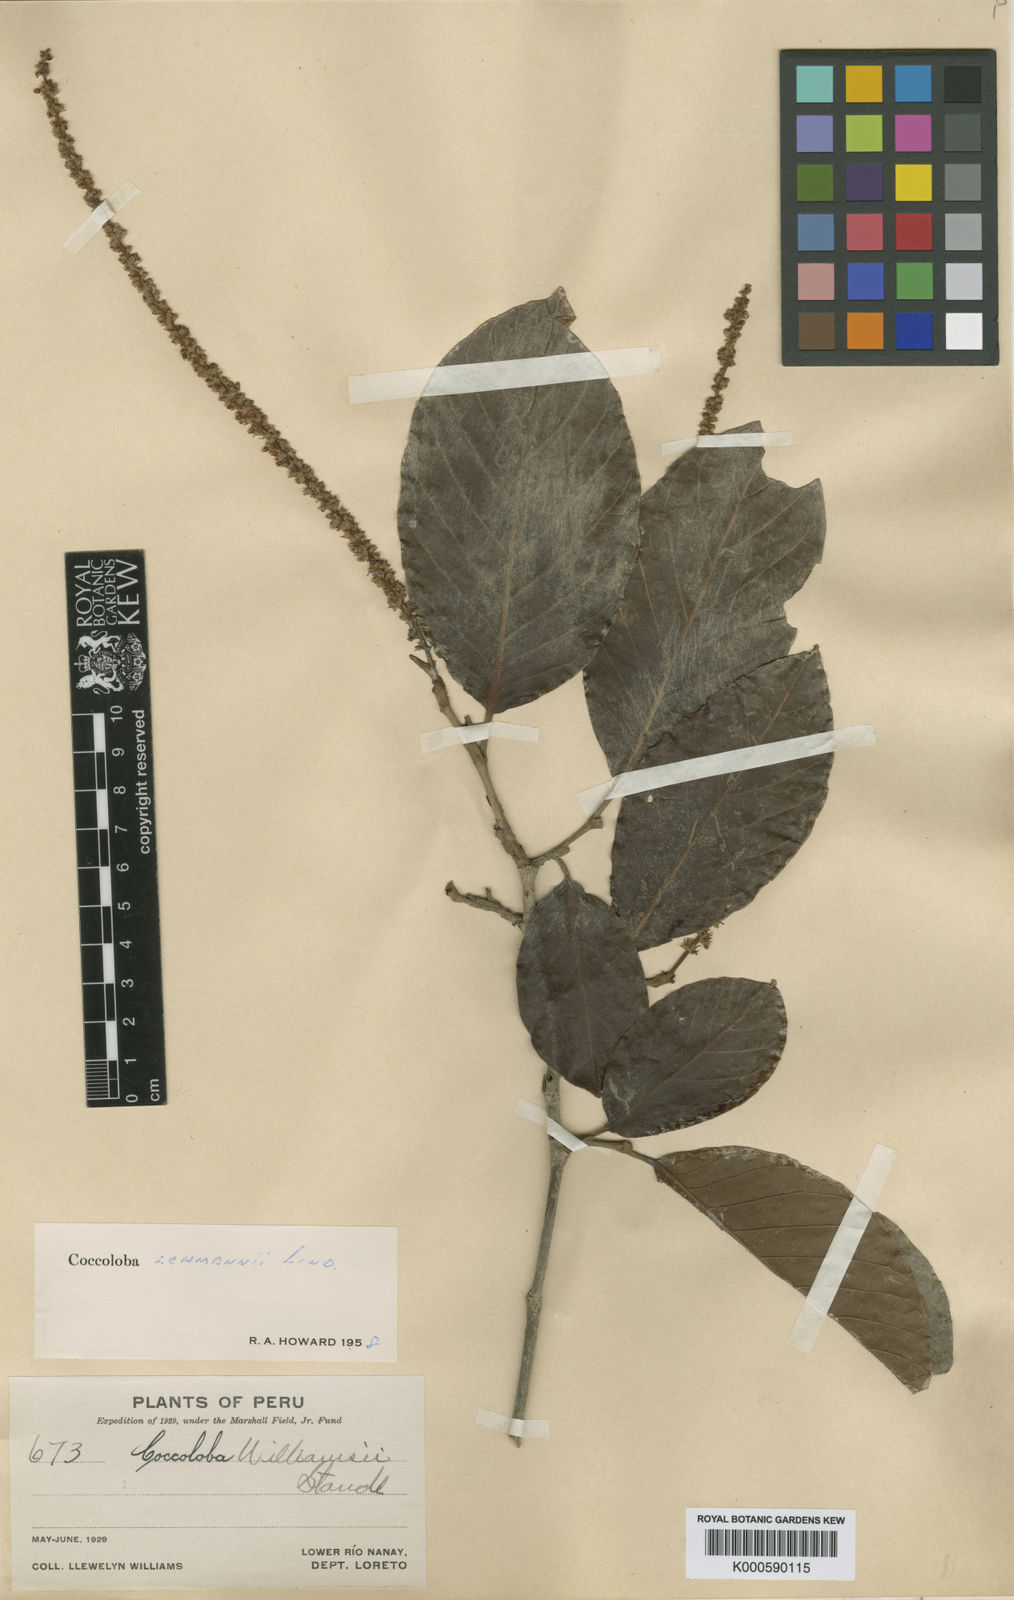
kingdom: Plantae
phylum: Tracheophyta
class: Magnoliopsida
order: Caryophyllales
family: Polygonaceae
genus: Coccoloba
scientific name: Coccoloba lehmannii
